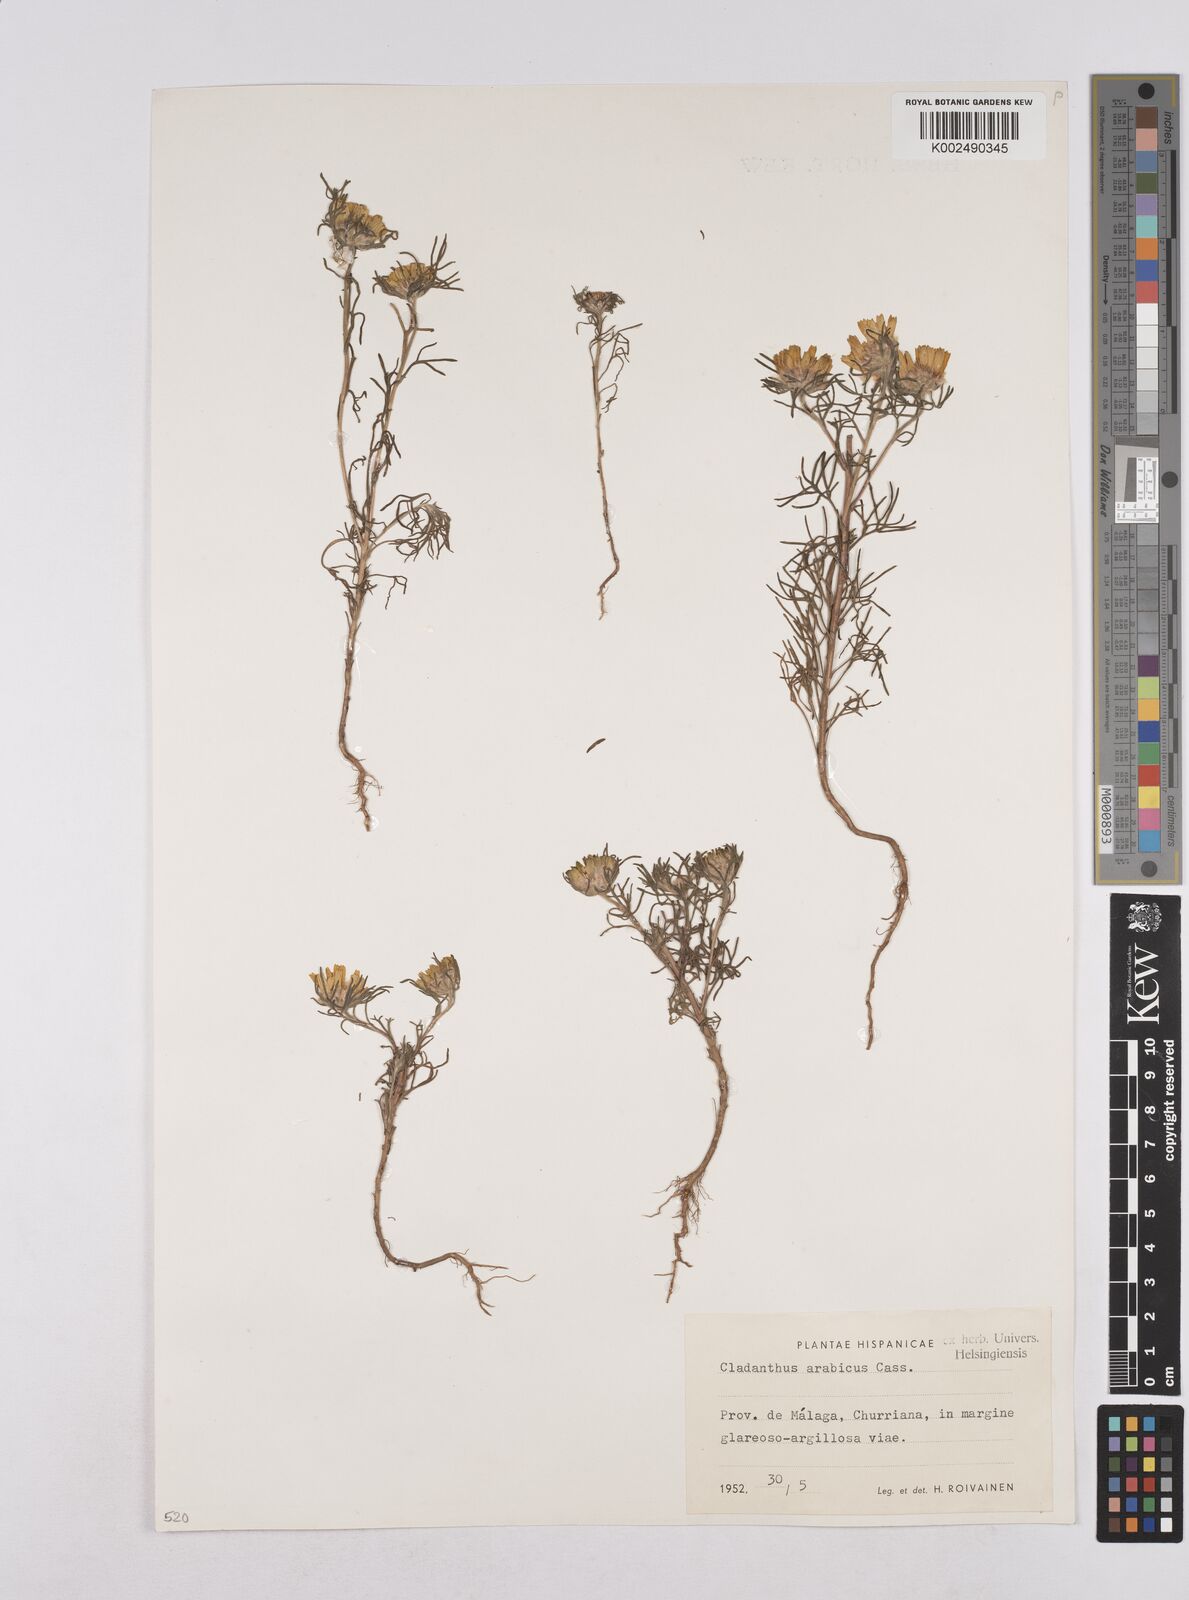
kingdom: Plantae
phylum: Tracheophyta
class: Magnoliopsida
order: Asterales
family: Asteraceae
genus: Cladanthus
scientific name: Cladanthus arabicus
